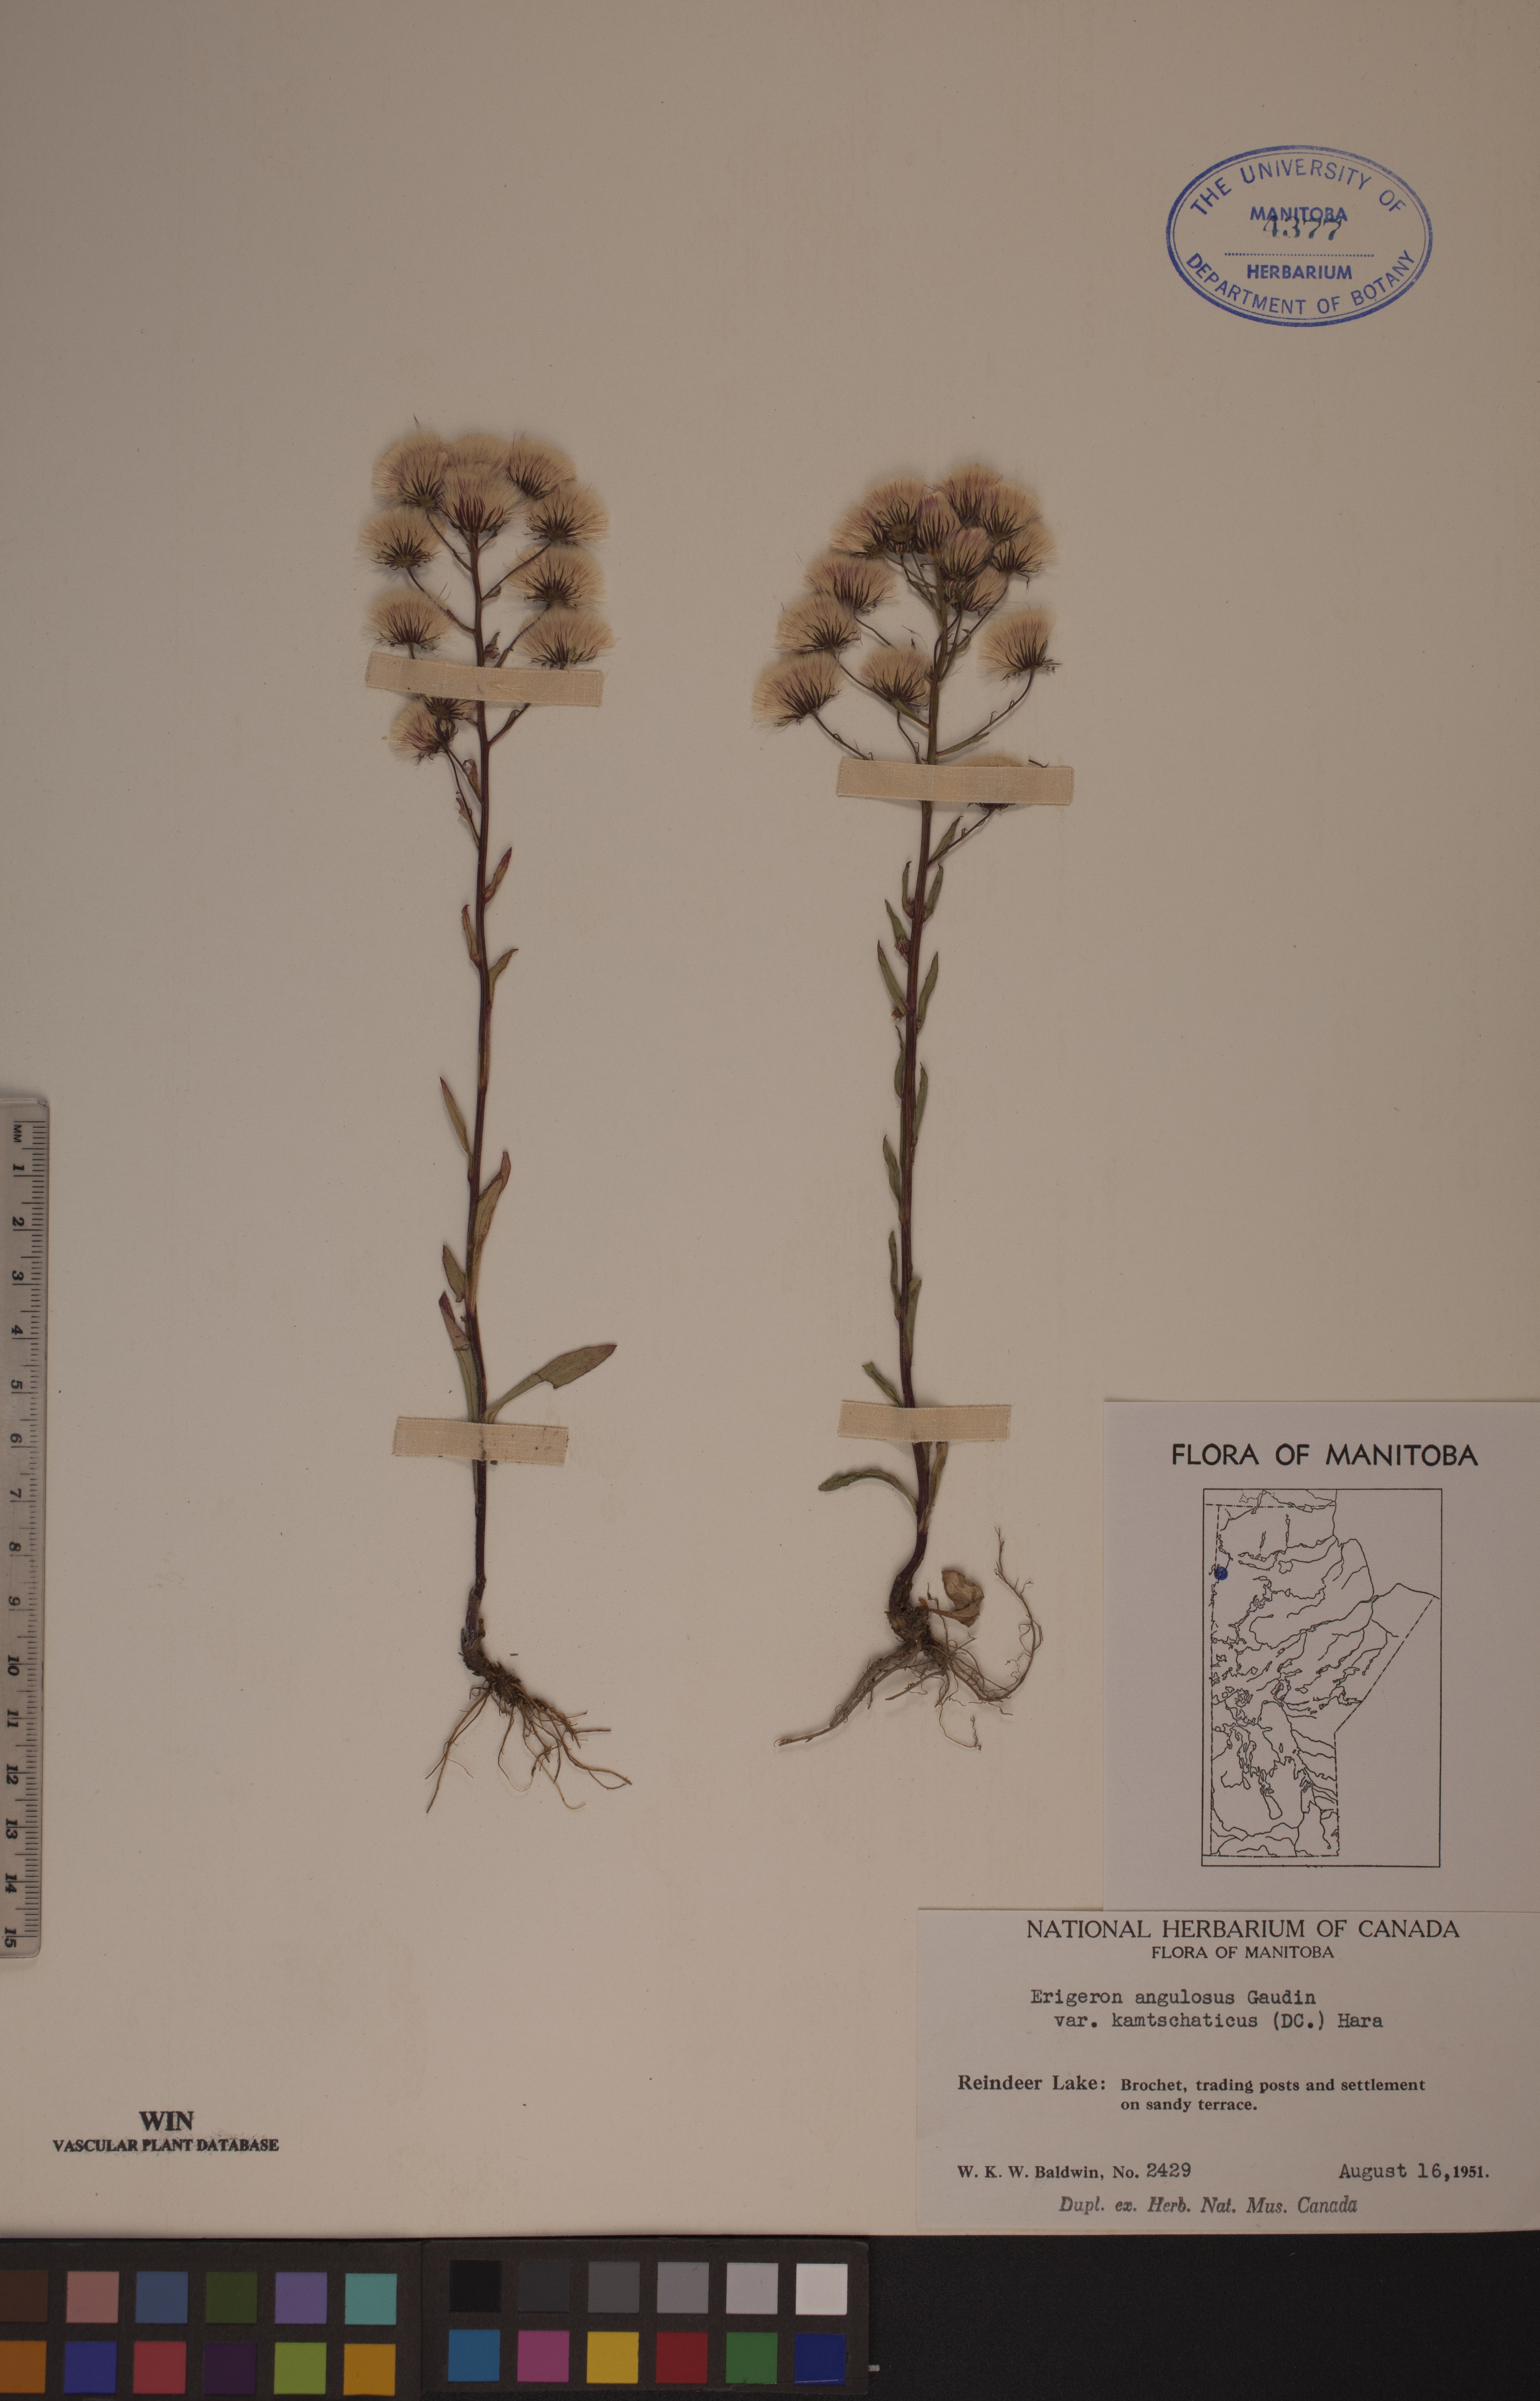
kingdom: Plantae
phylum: Tracheophyta
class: Magnoliopsida
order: Asterales
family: Asteraceae
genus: Erigeron
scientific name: Erigeron kamtschaticus
